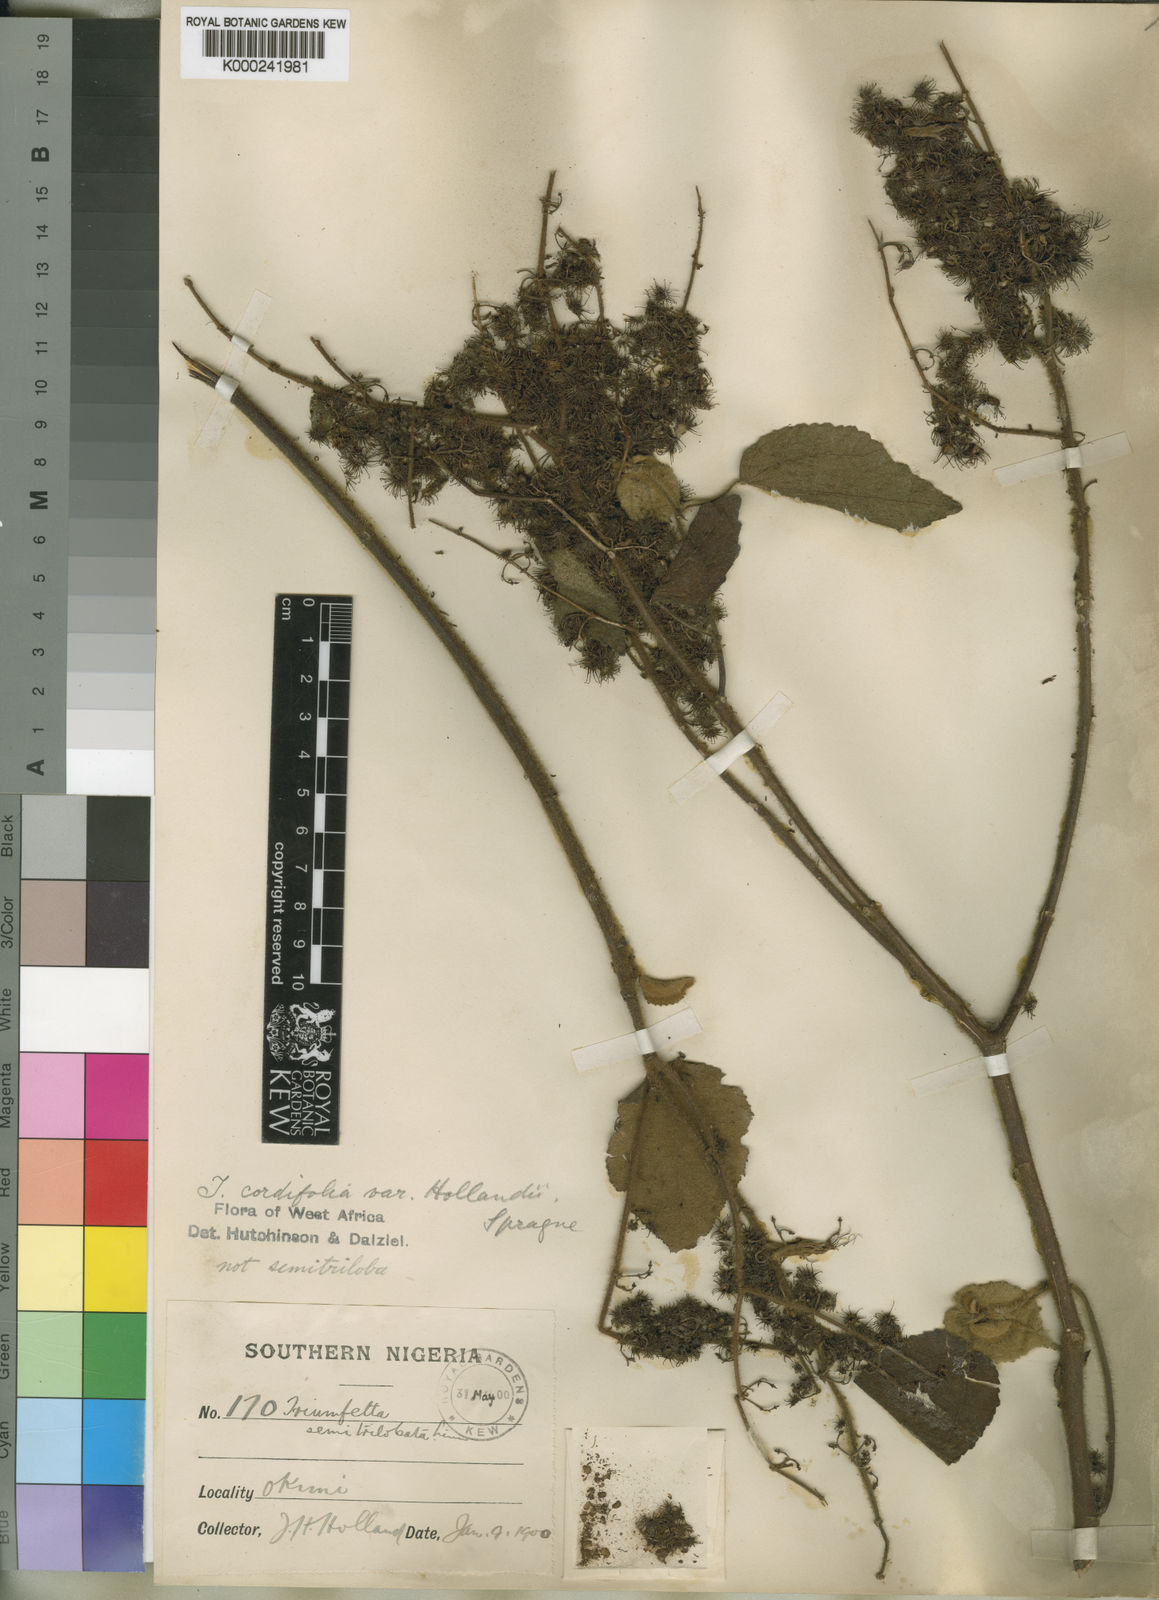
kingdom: Plantae
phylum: Tracheophyta
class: Magnoliopsida
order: Malvales
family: Malvaceae
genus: Triumfetta
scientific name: Triumfetta cordifolia
